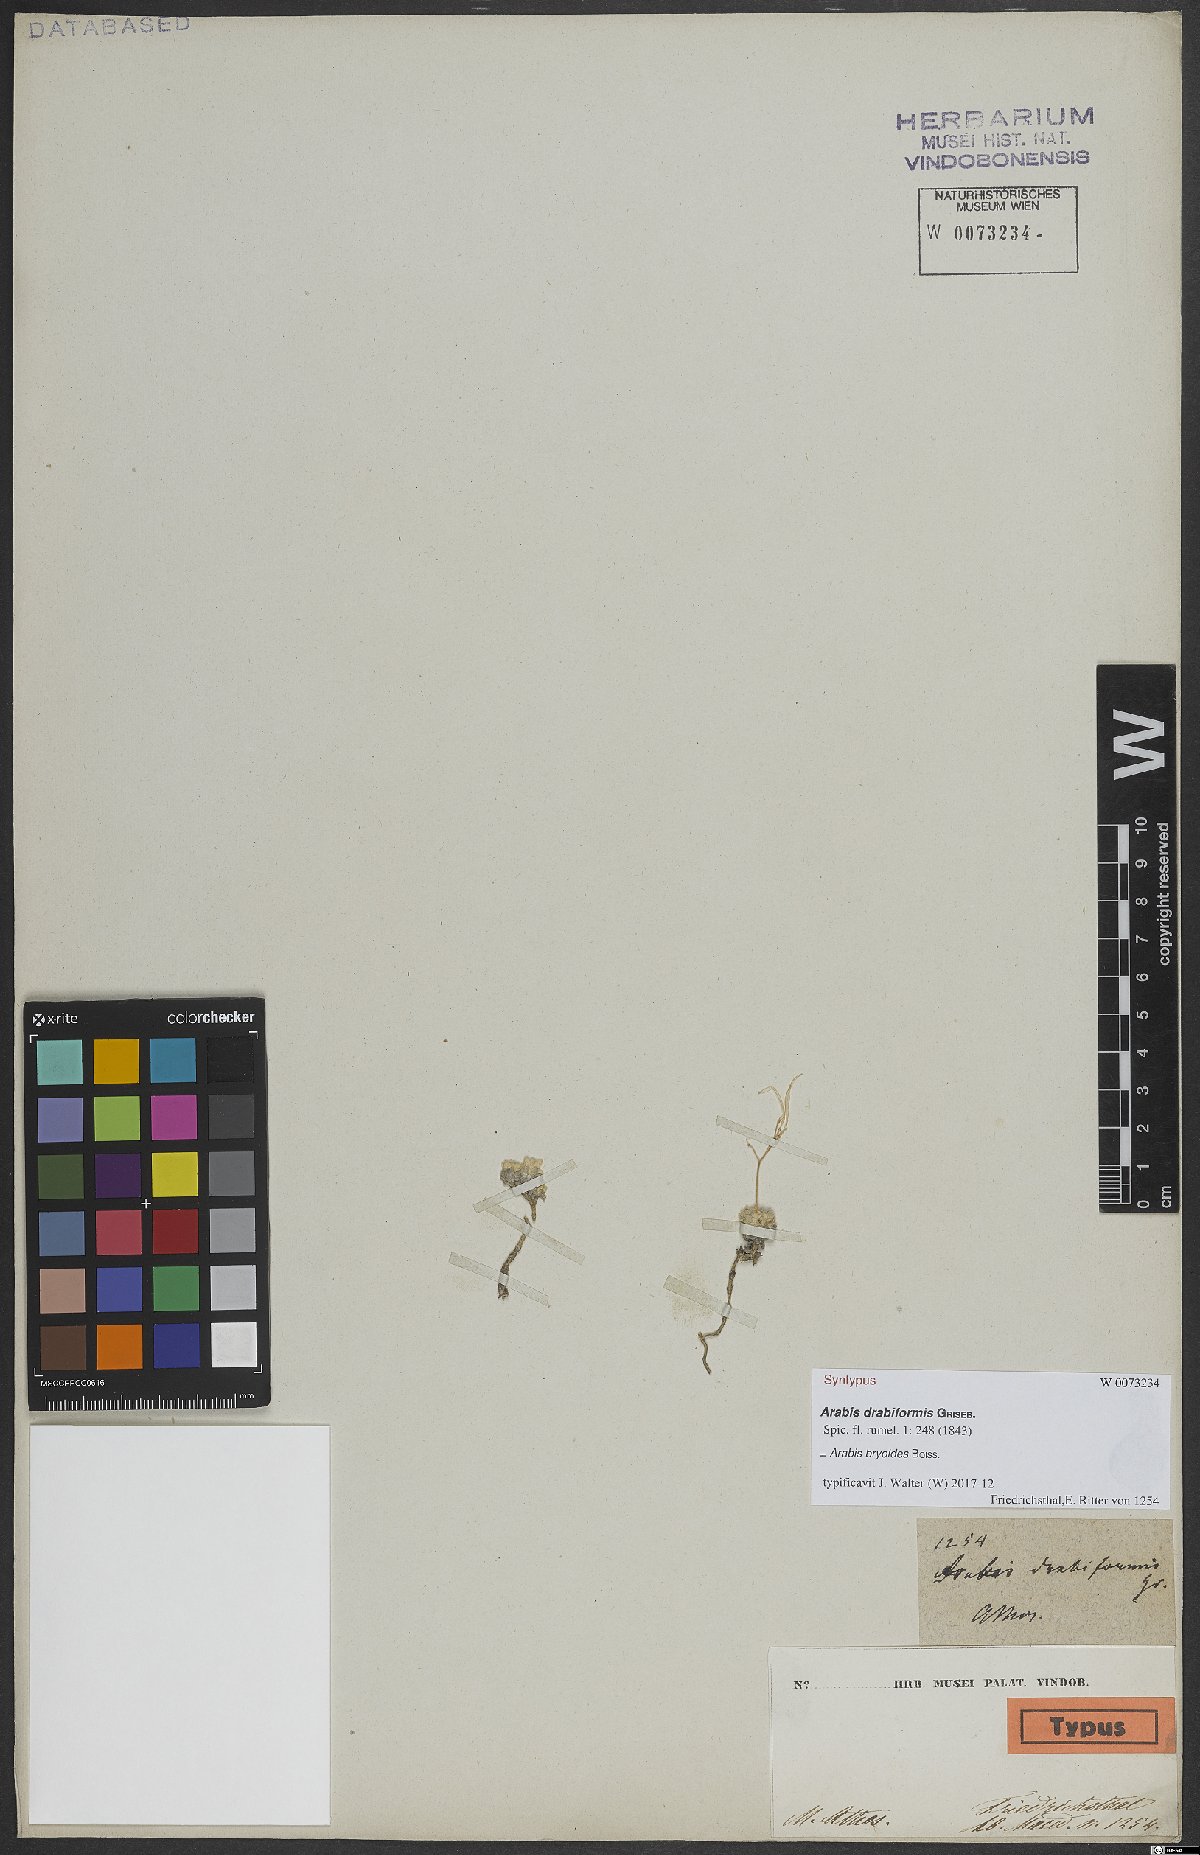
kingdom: Plantae
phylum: Tracheophyta
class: Magnoliopsida
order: Brassicales
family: Brassicaceae
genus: Arabis
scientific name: Arabis bryoides
